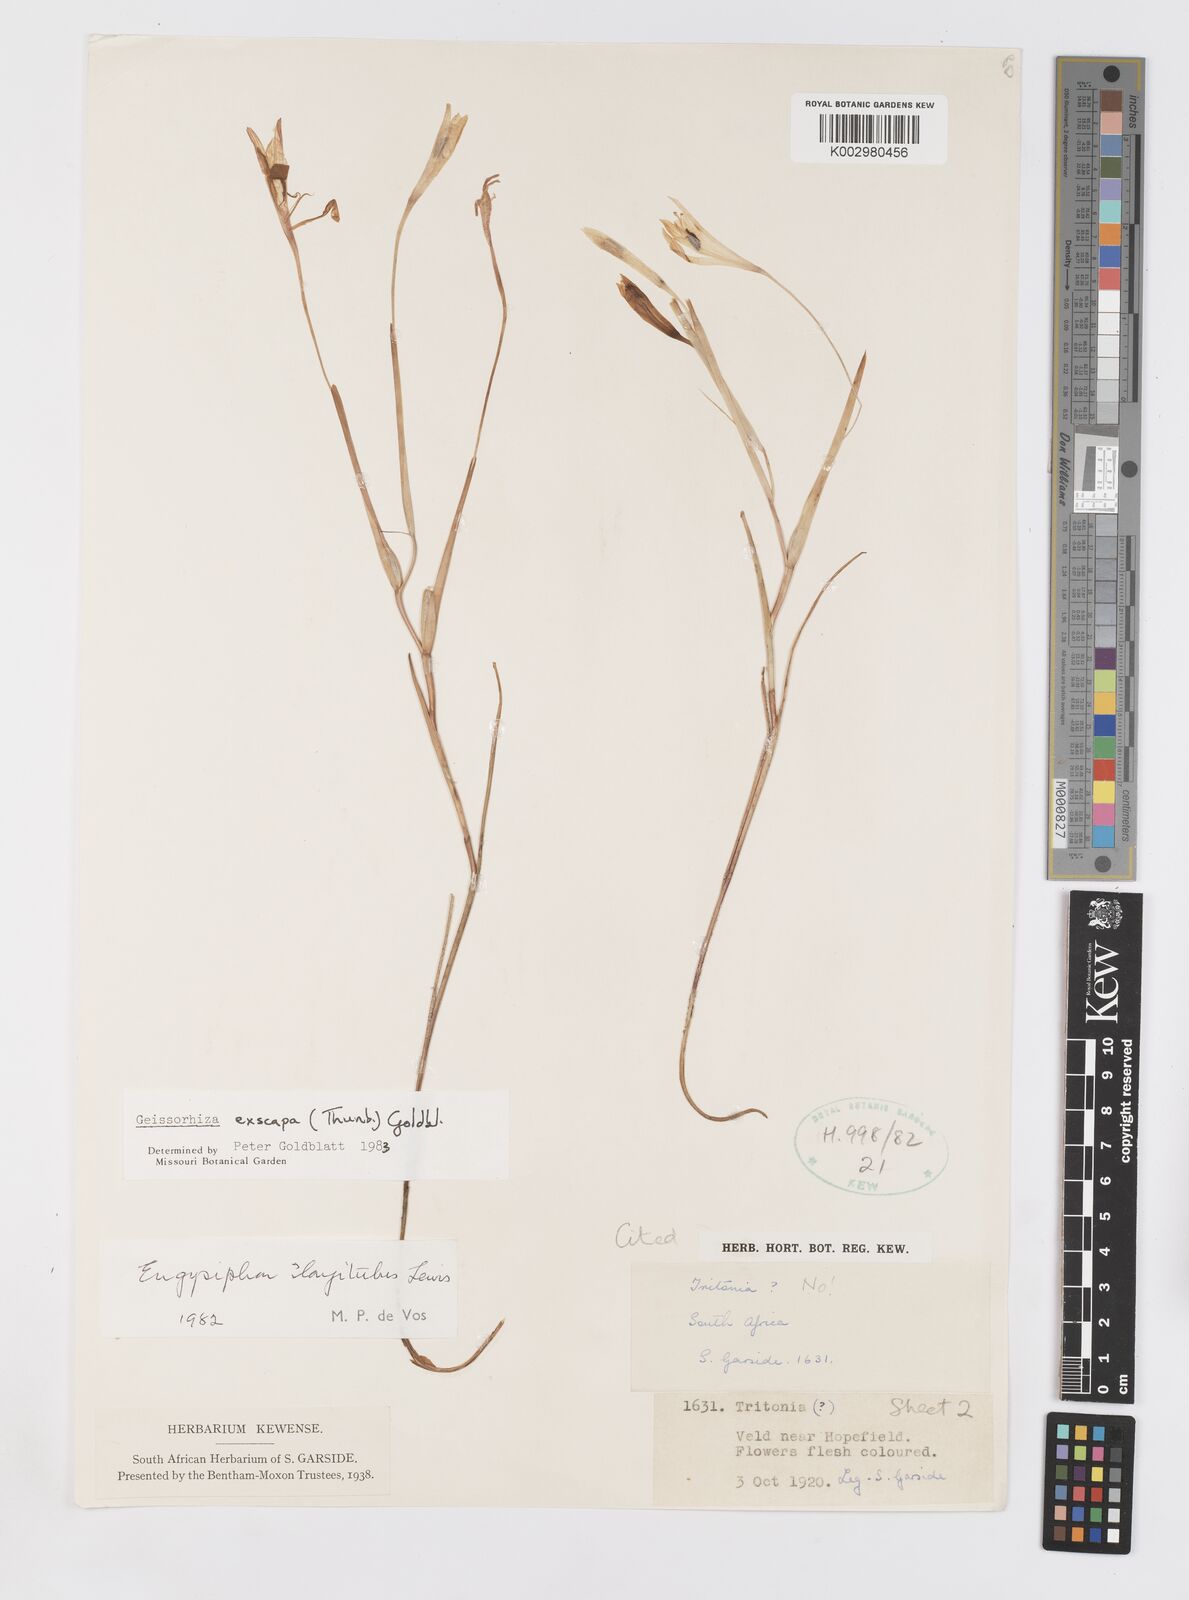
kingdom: Plantae
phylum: Tracheophyta
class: Liliopsida
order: Asparagales
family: Iridaceae
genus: Geissorhiza
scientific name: Geissorhiza exscapa
